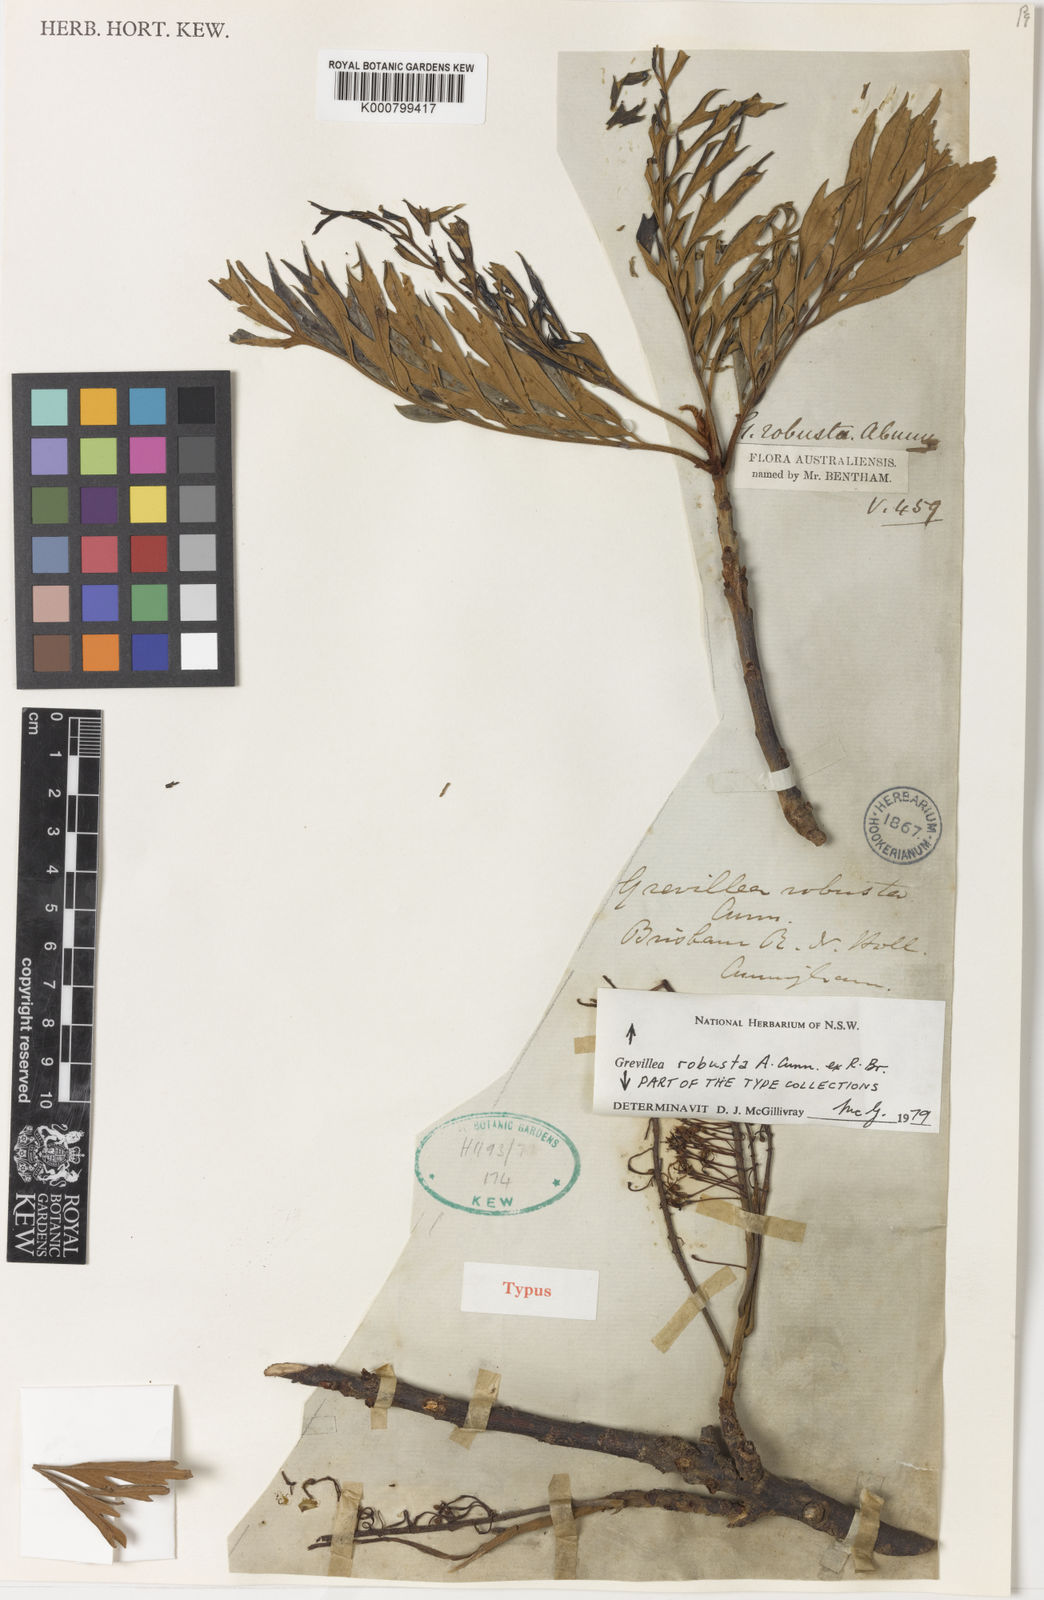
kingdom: Plantae
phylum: Tracheophyta
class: Magnoliopsida
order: Proteales
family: Proteaceae
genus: Grevillea
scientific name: Grevillea robusta
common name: Silkoak
